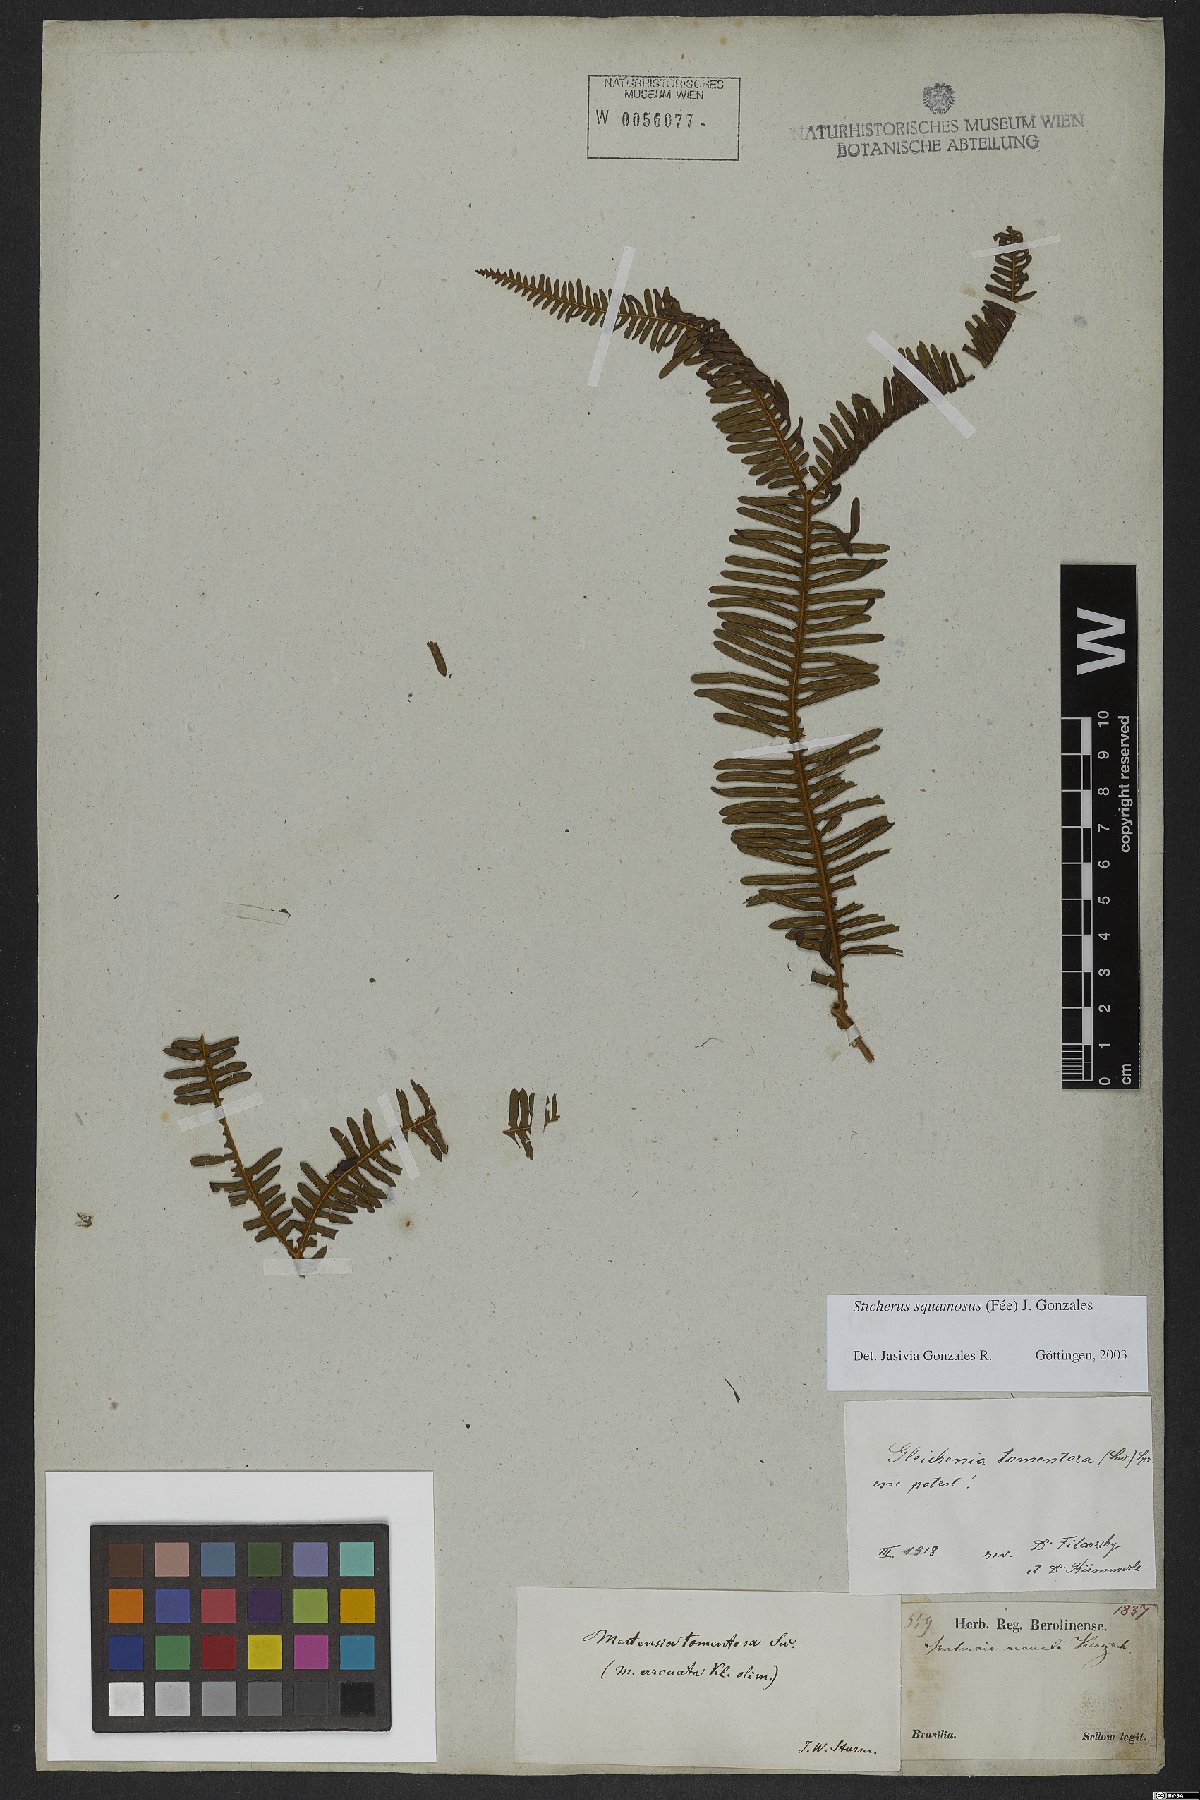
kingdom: Plantae
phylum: Tracheophyta
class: Polypodiopsida
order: Gleicheniales
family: Gleicheniaceae
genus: Sticherus
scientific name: Sticherus squamosus
